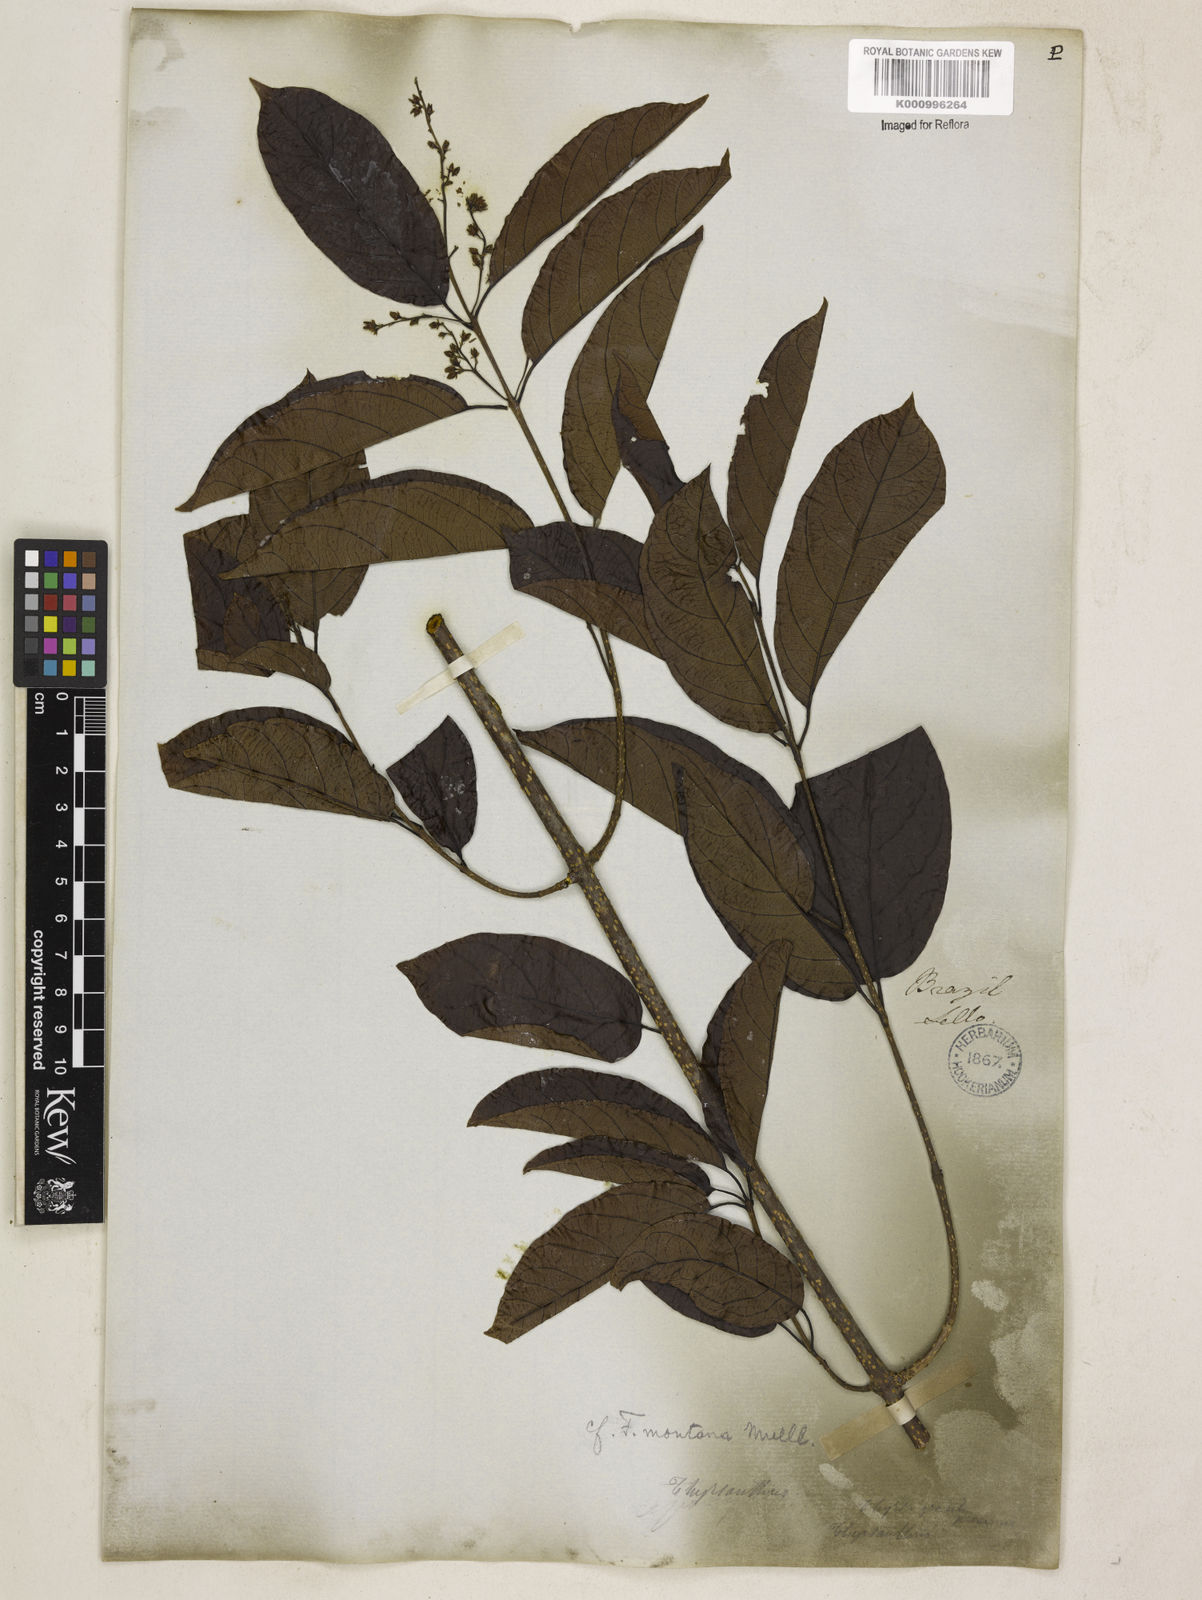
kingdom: Plantae
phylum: Tracheophyta
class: Magnoliopsida
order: Gentianales
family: Apocynaceae
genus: Forsteronia
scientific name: Forsteronia
